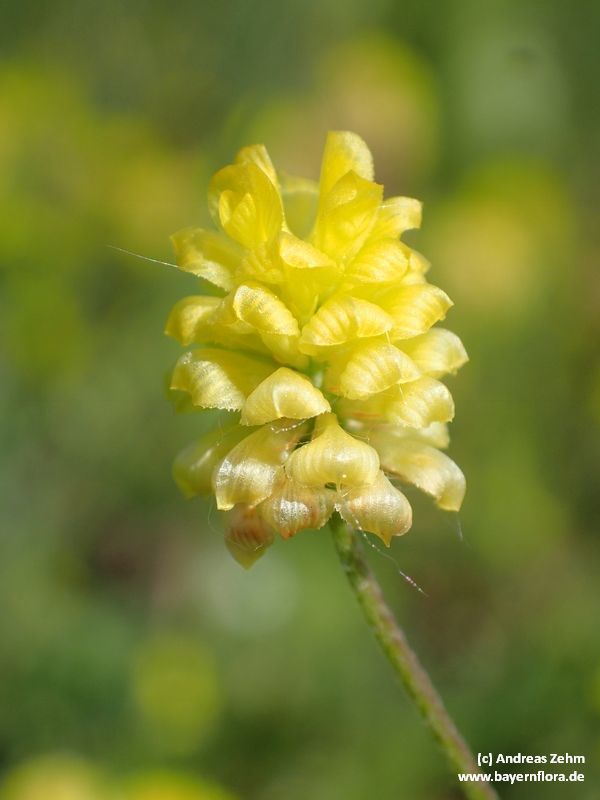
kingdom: Plantae
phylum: Tracheophyta
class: Magnoliopsida
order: Fabales
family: Fabaceae
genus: Trifolium
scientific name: Trifolium campestre
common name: Field clover
